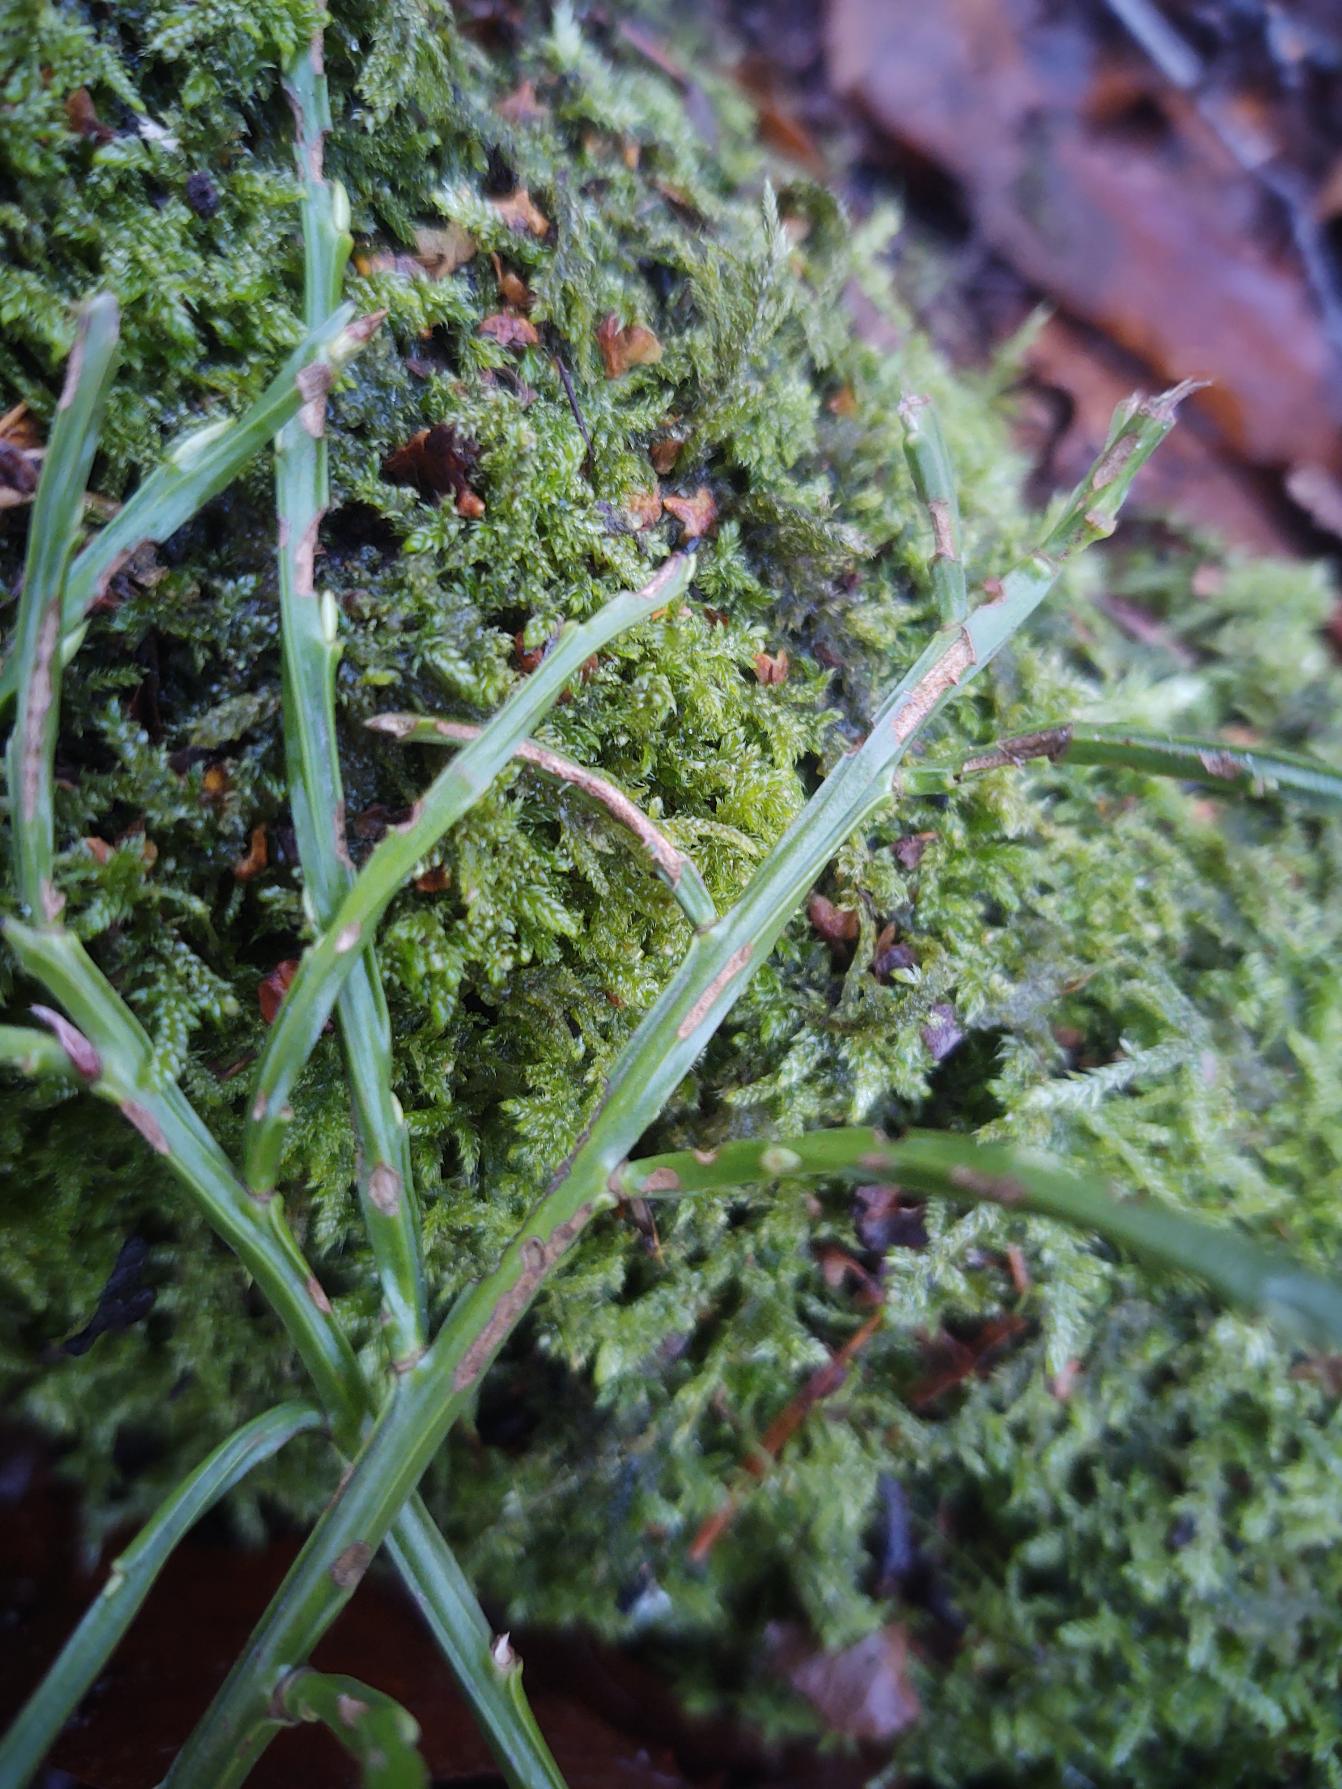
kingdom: Plantae
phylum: Tracheophyta
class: Magnoliopsida
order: Ericales
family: Ericaceae
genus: Vaccinium
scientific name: Vaccinium myrtillus
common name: Blåbær
